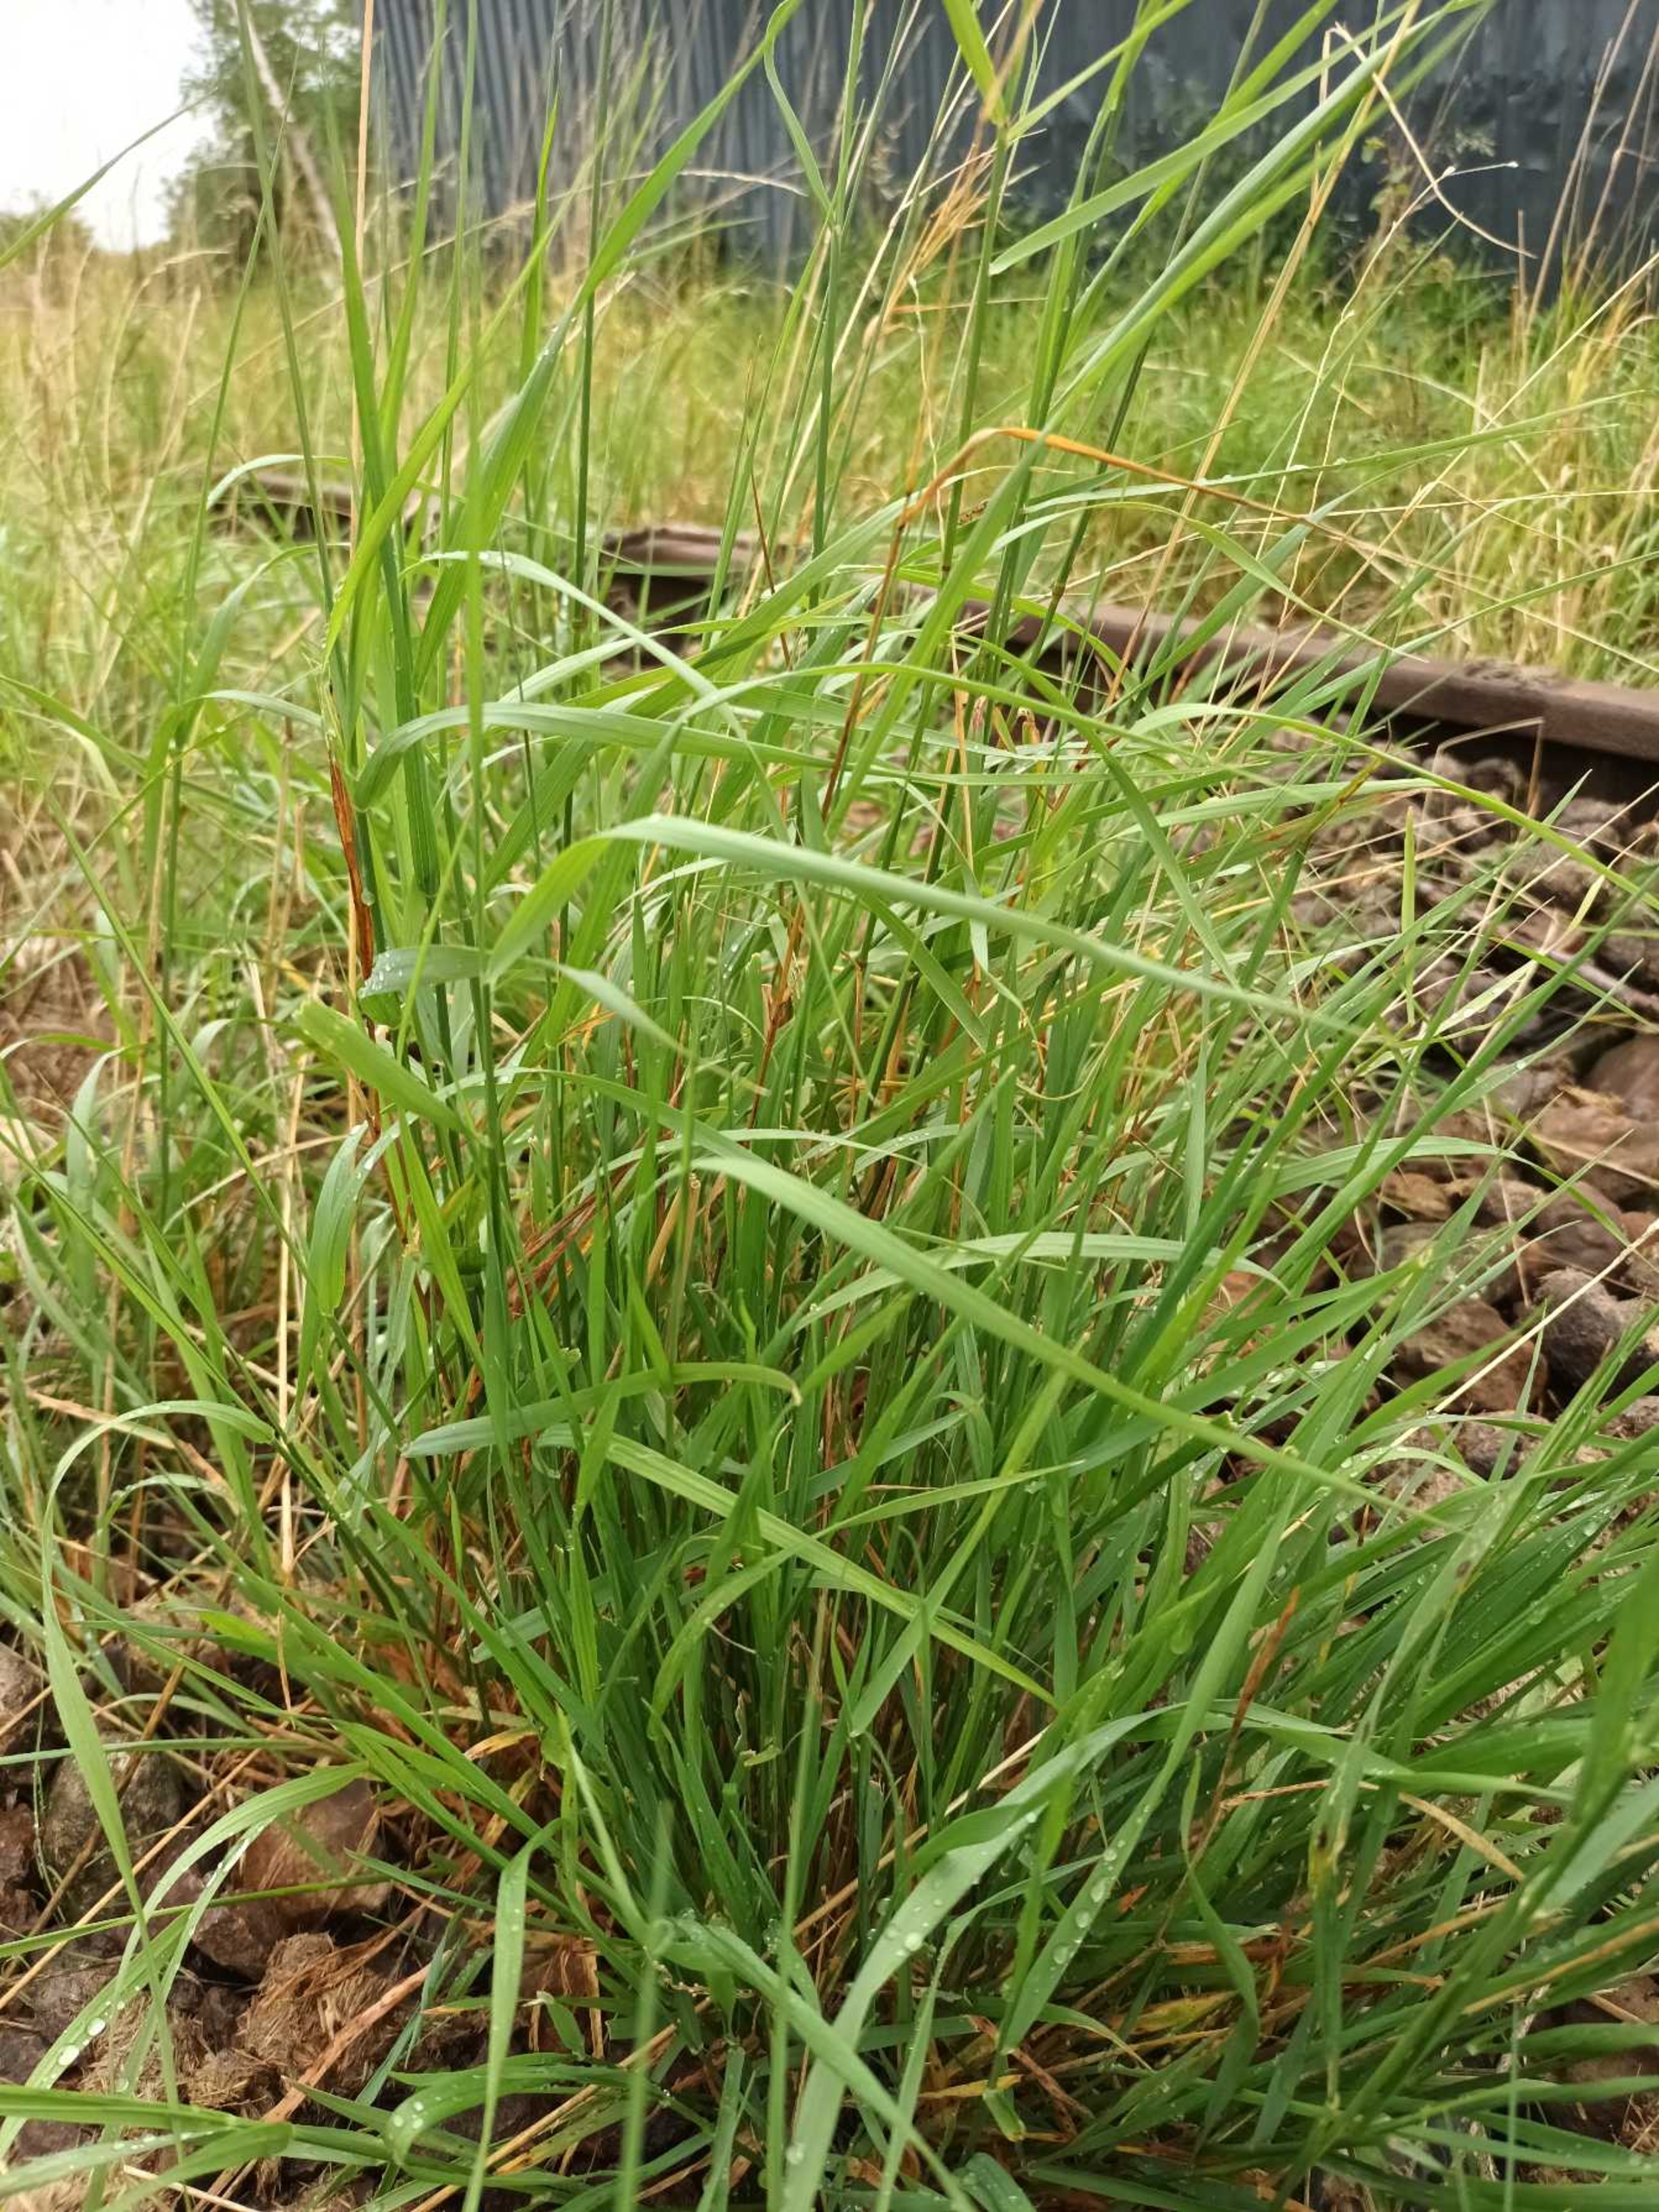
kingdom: Plantae
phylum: Tracheophyta
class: Liliopsida
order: Poales
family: Poaceae
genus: Arrhenatherum
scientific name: Arrhenatherum elatius
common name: Draphavre
